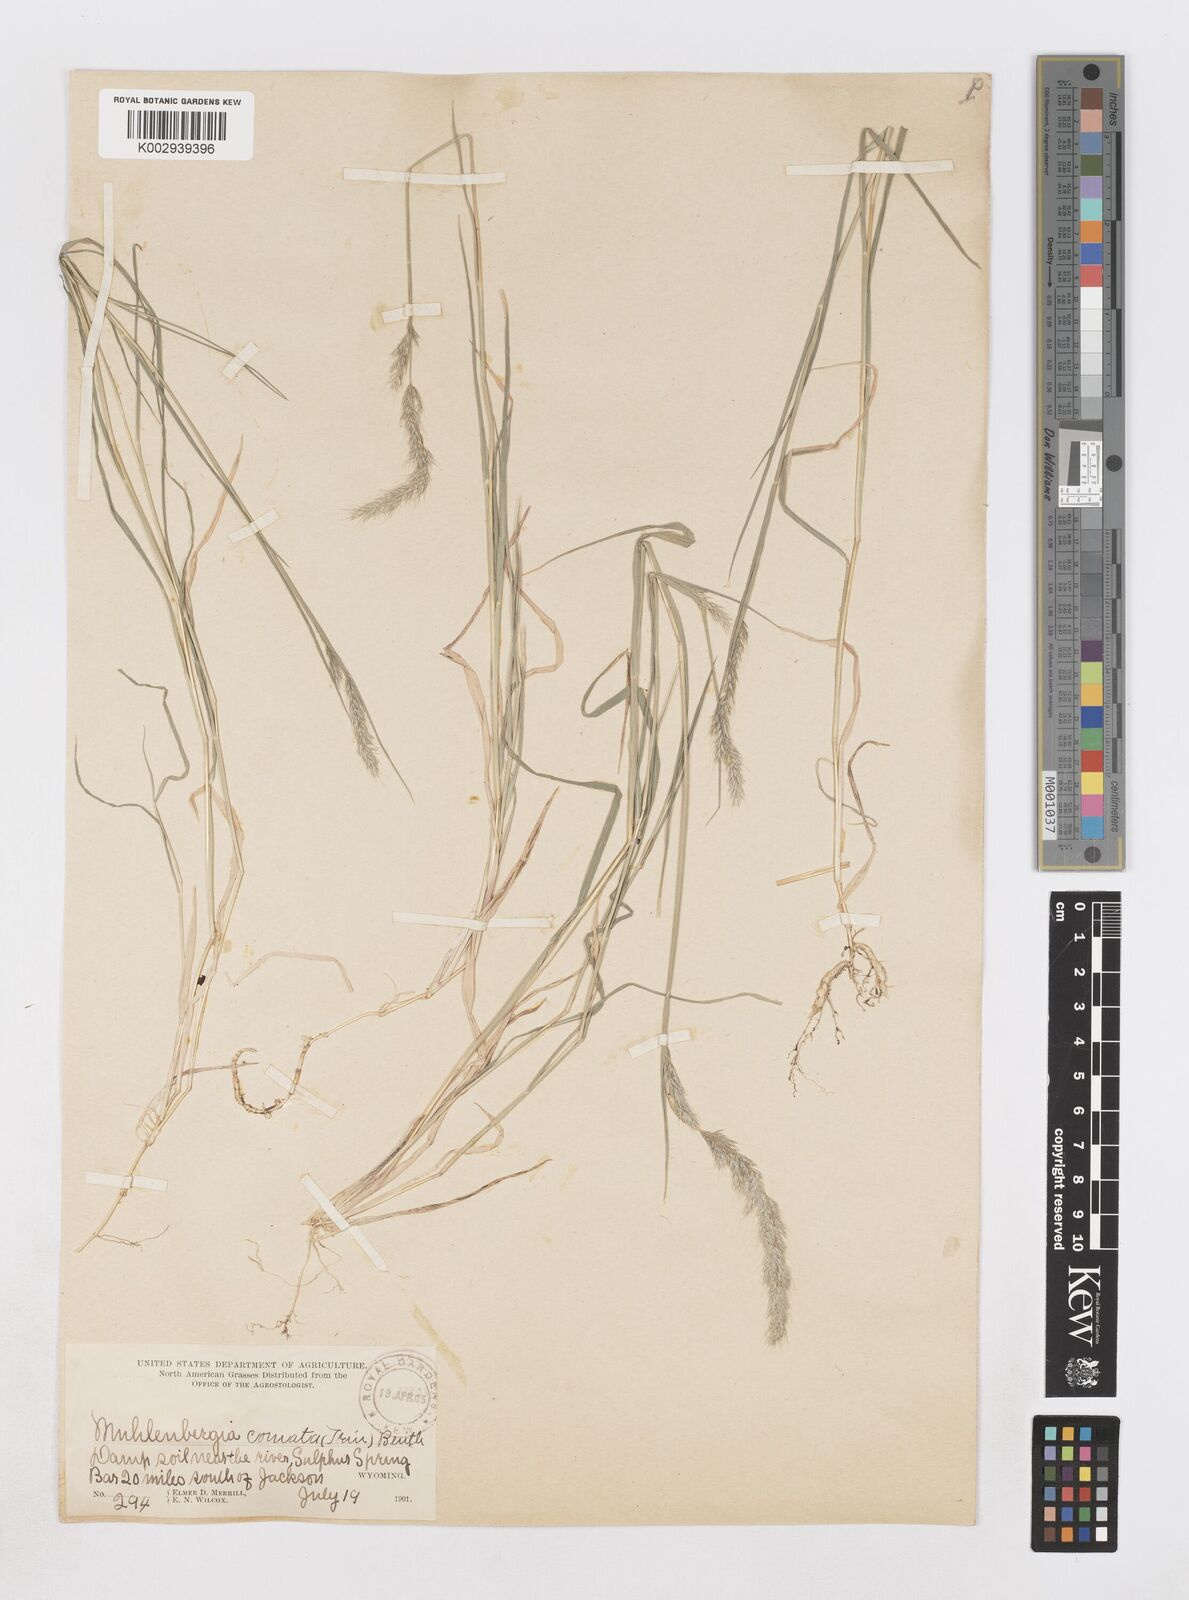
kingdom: Plantae
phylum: Tracheophyta
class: Liliopsida
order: Poales
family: Poaceae
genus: Muhlenbergia
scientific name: Muhlenbergia andina
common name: Foxtail muhly
